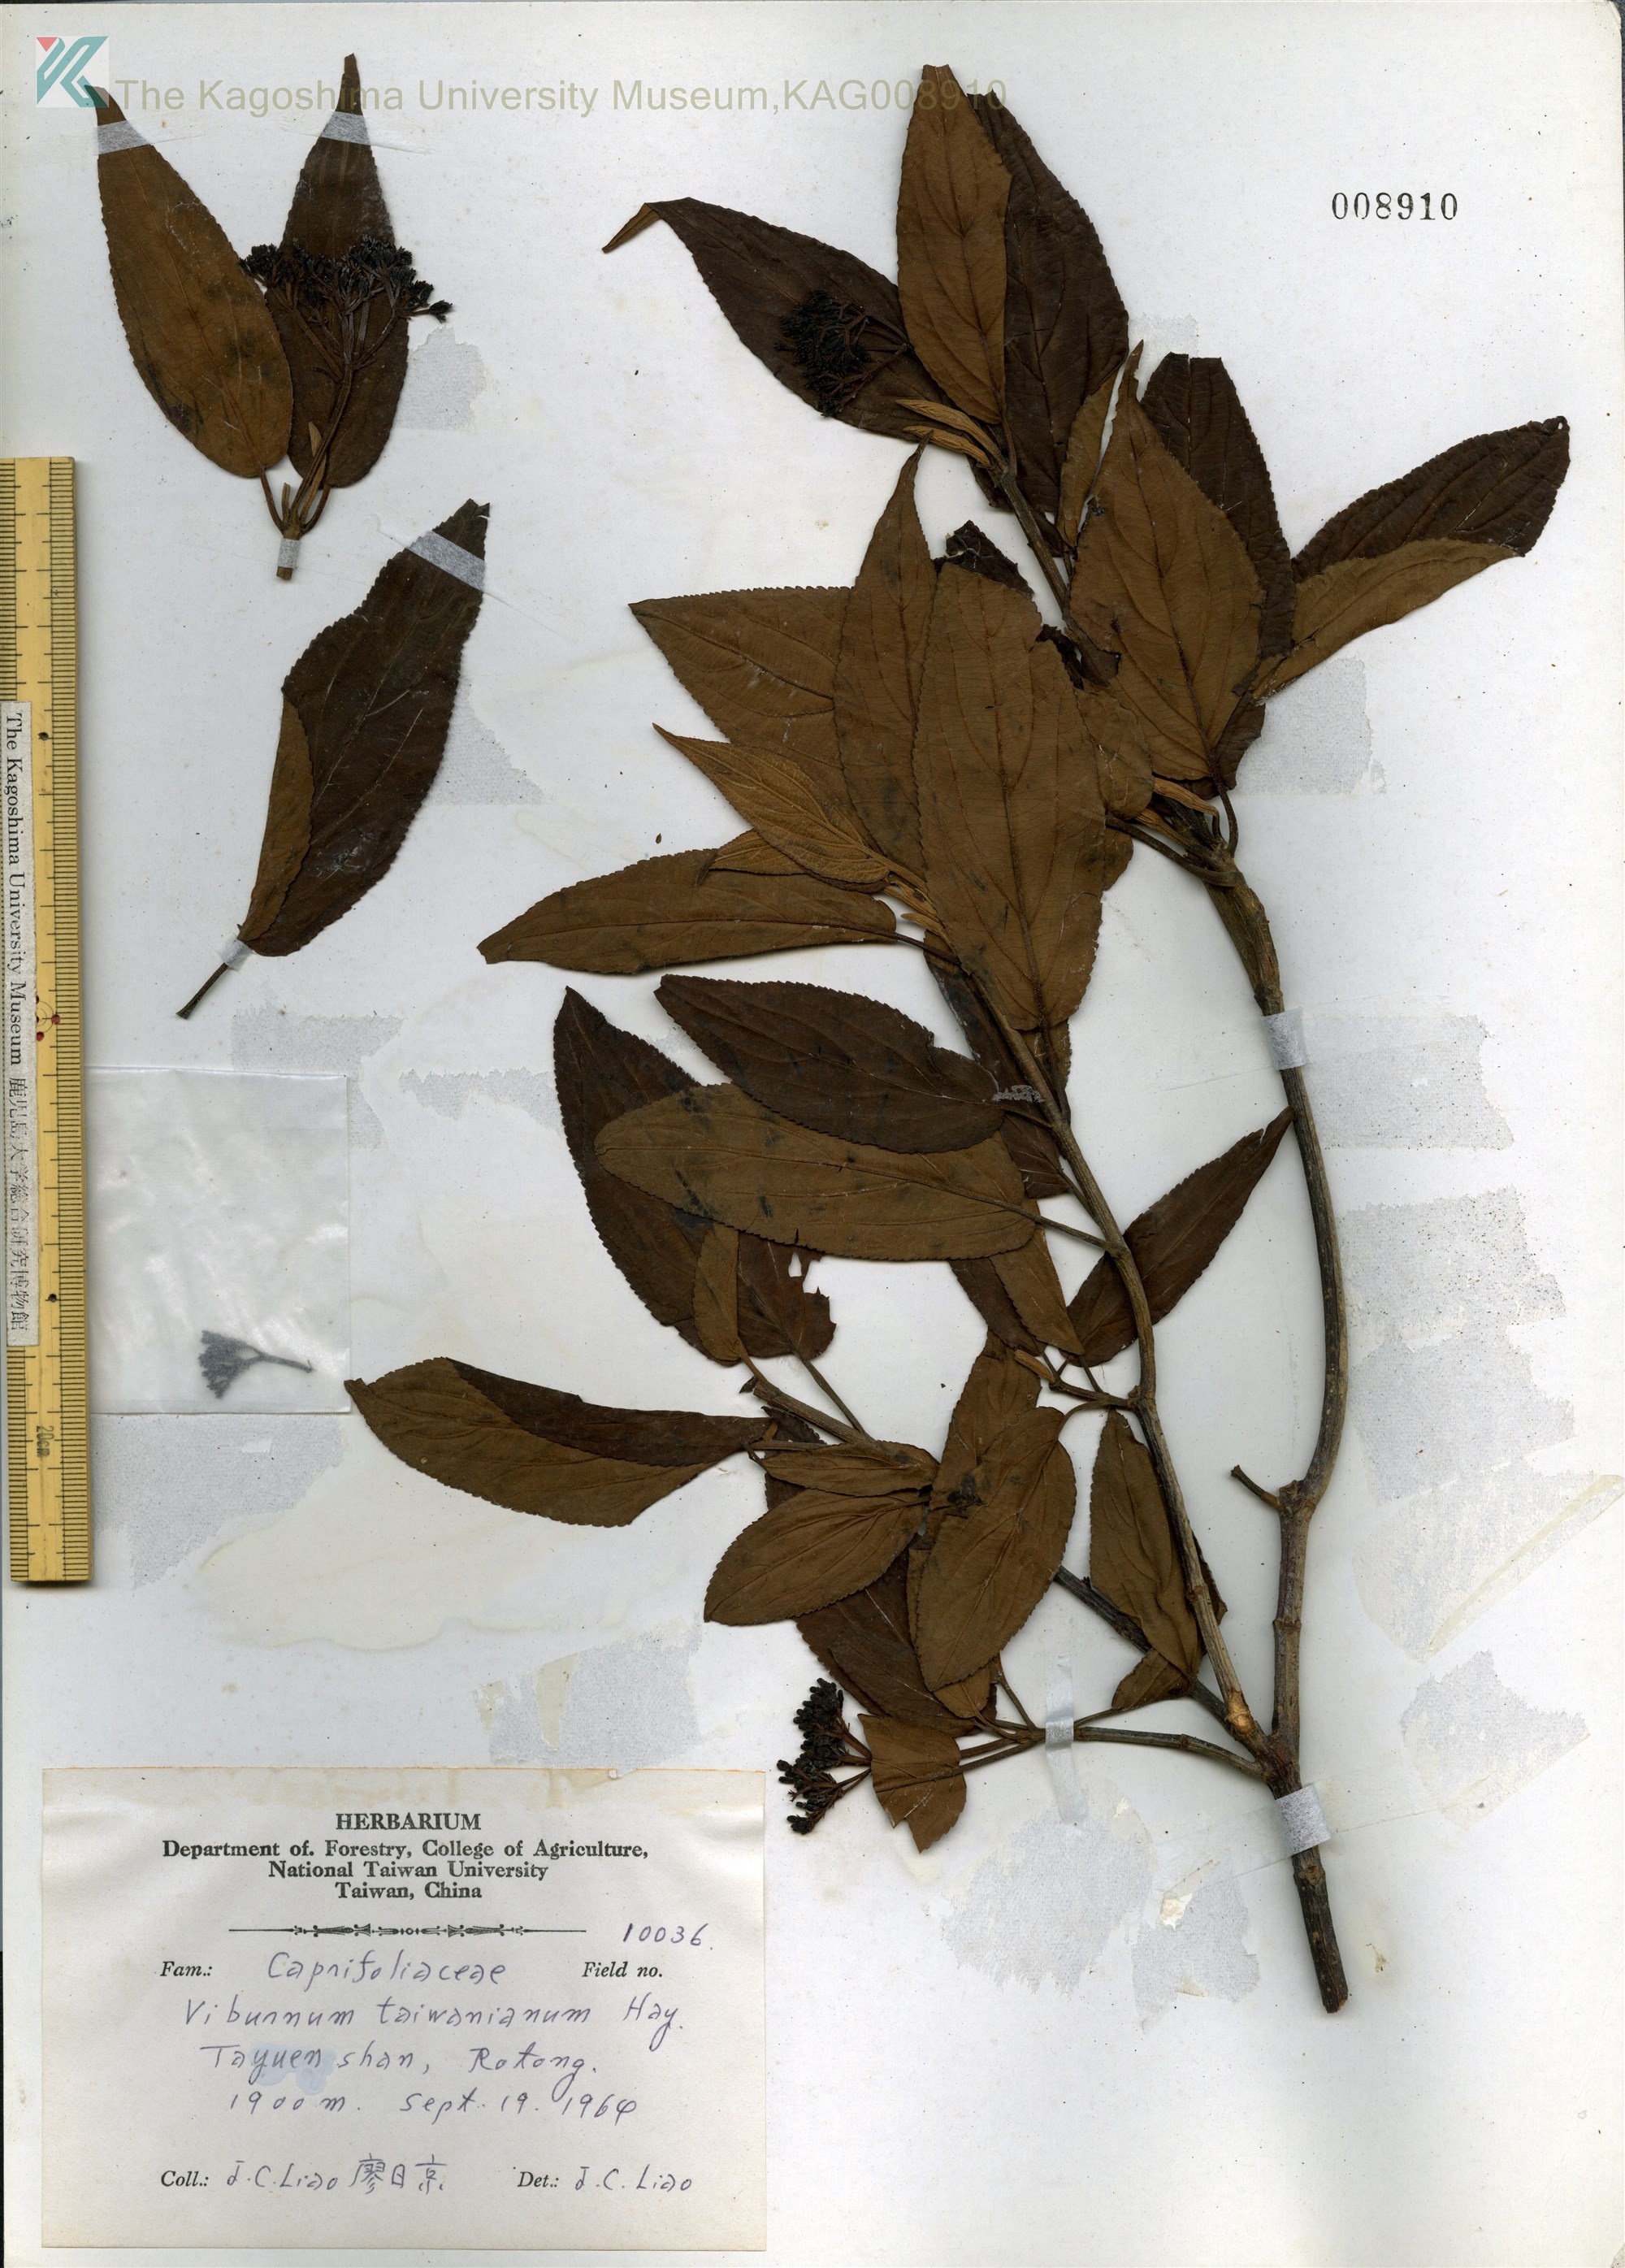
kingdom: Plantae
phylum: Tracheophyta
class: Magnoliopsida
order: Dipsacales
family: Viburnaceae
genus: Viburnum
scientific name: Viburnum urceolatum
